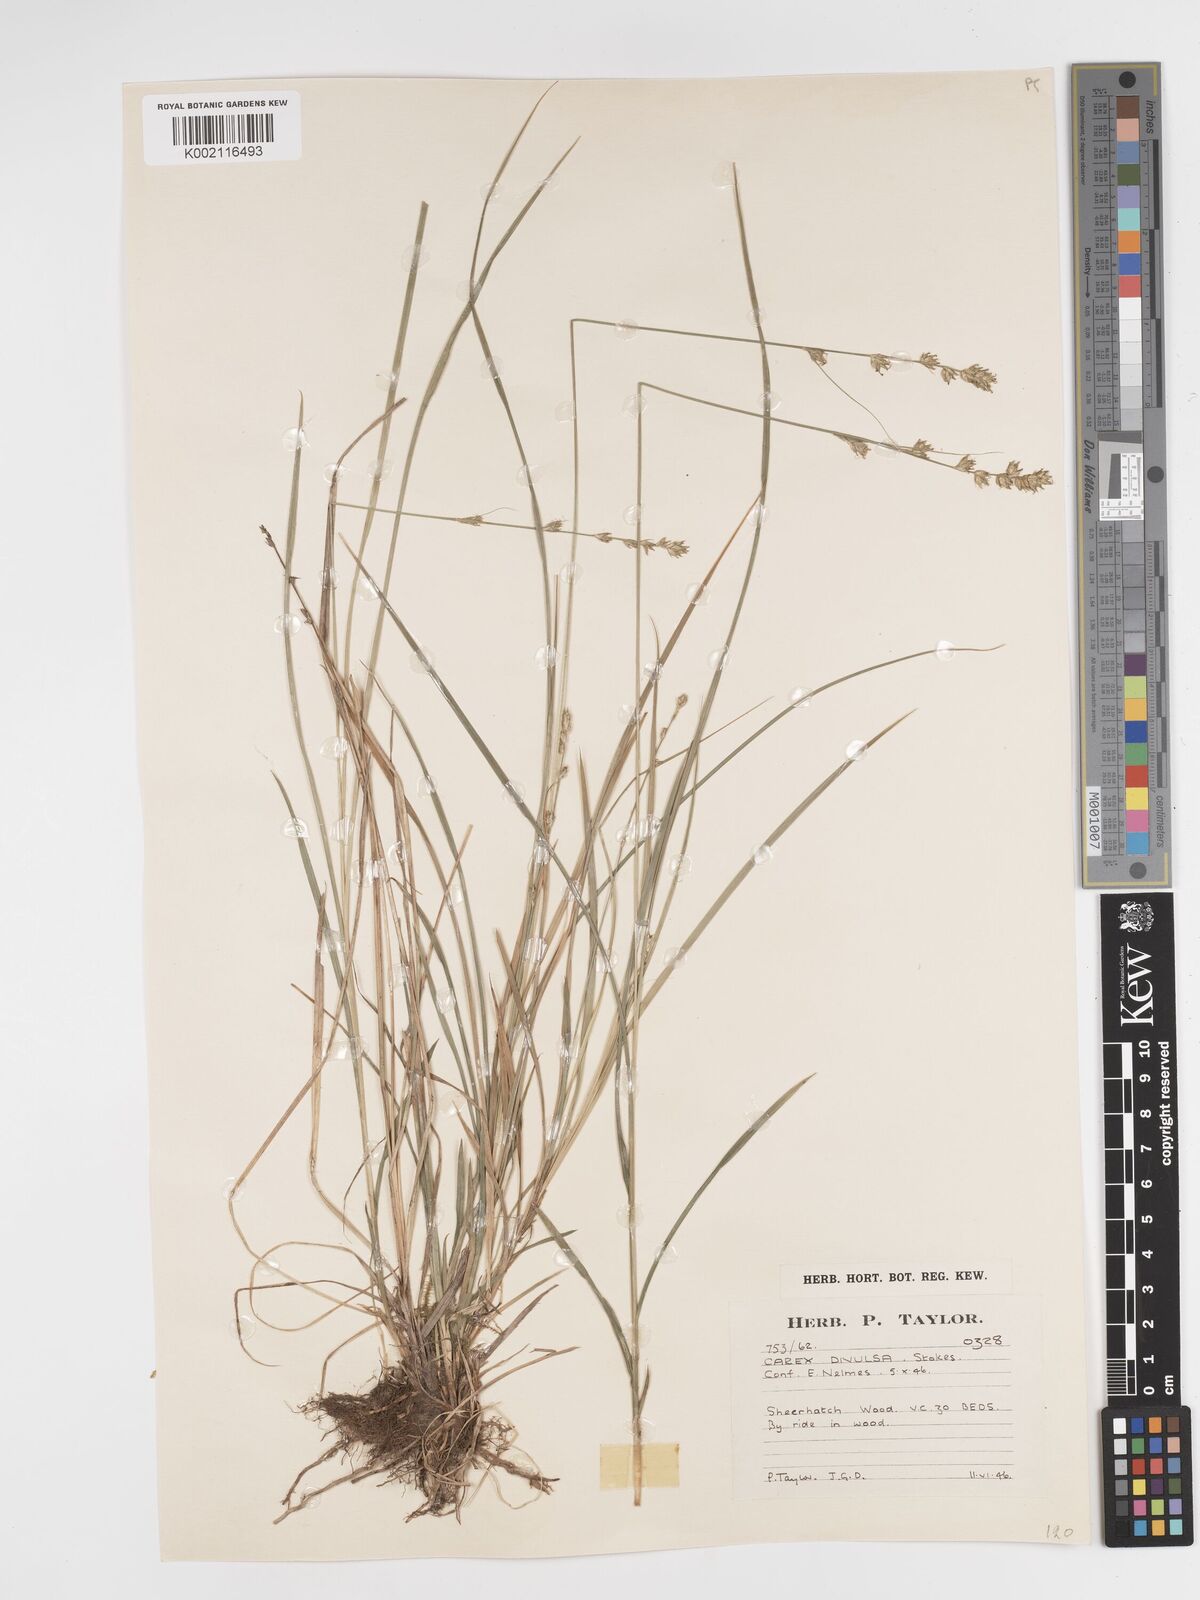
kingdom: Plantae
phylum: Tracheophyta
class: Liliopsida
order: Poales
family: Cyperaceae
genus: Carex
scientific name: Carex divulsa
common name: Grassland sedge
